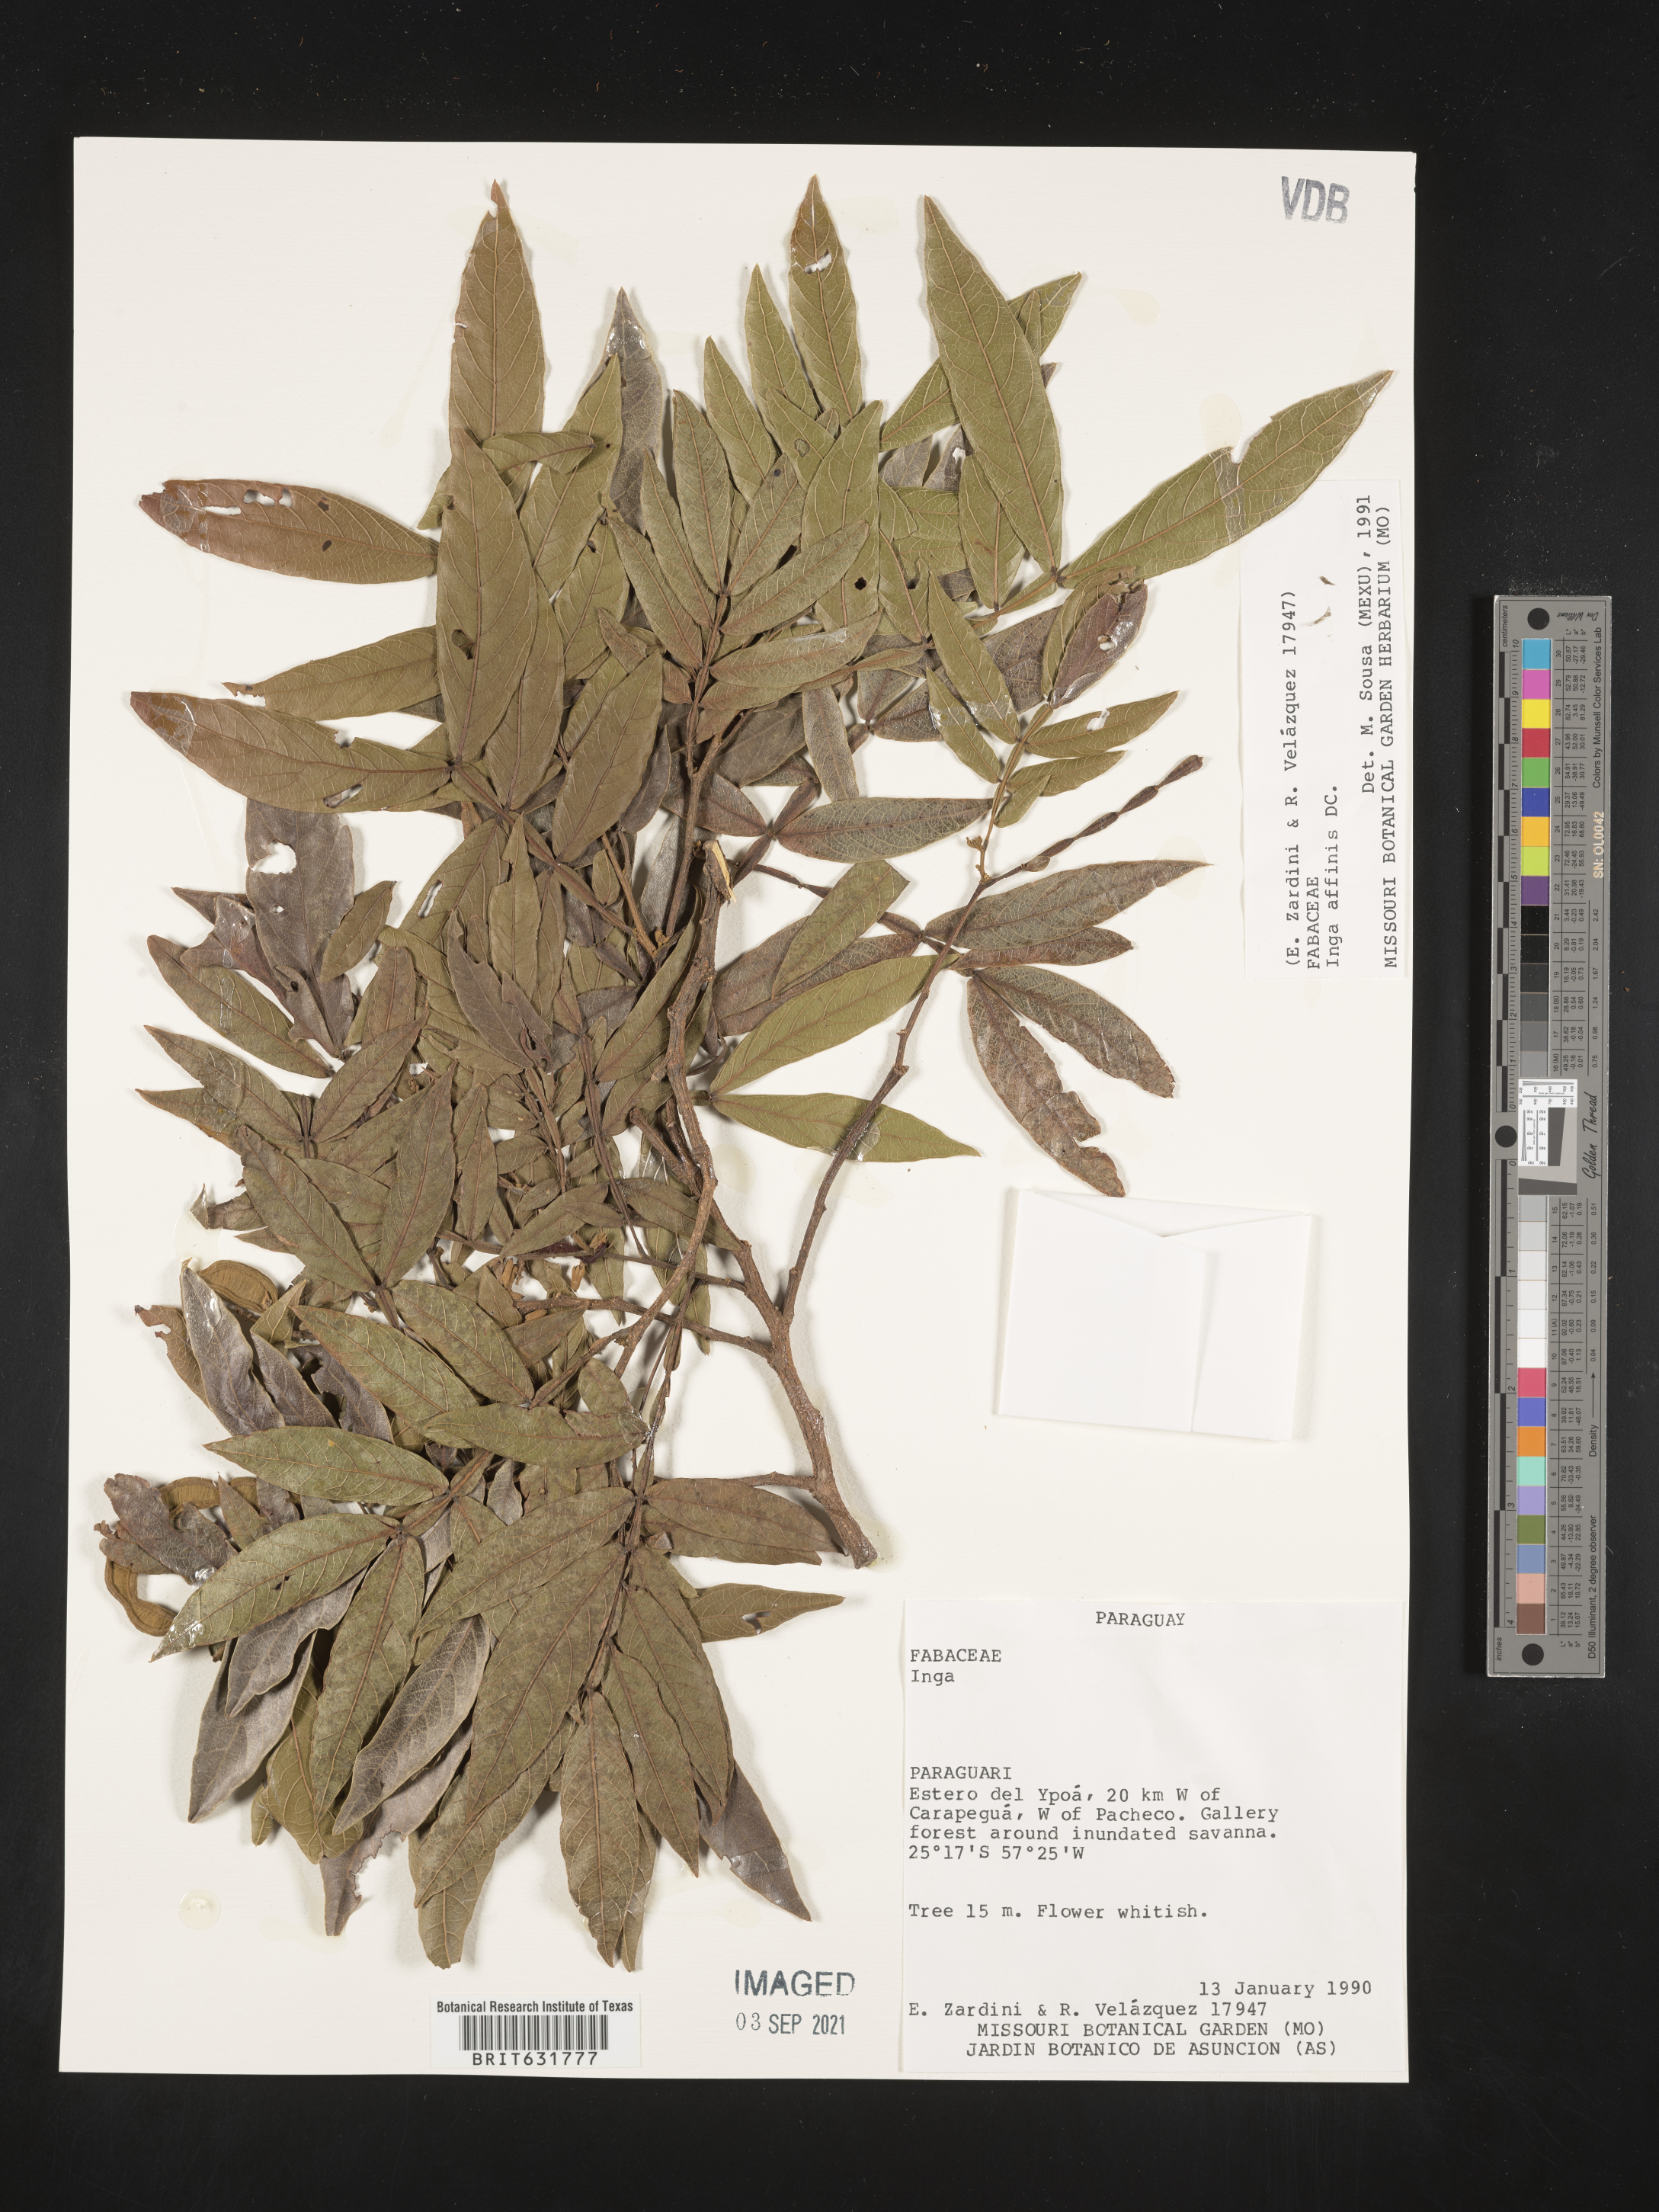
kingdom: Plantae
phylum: Tracheophyta
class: Magnoliopsida
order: Fabales
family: Fabaceae
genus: Inga
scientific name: Inga
